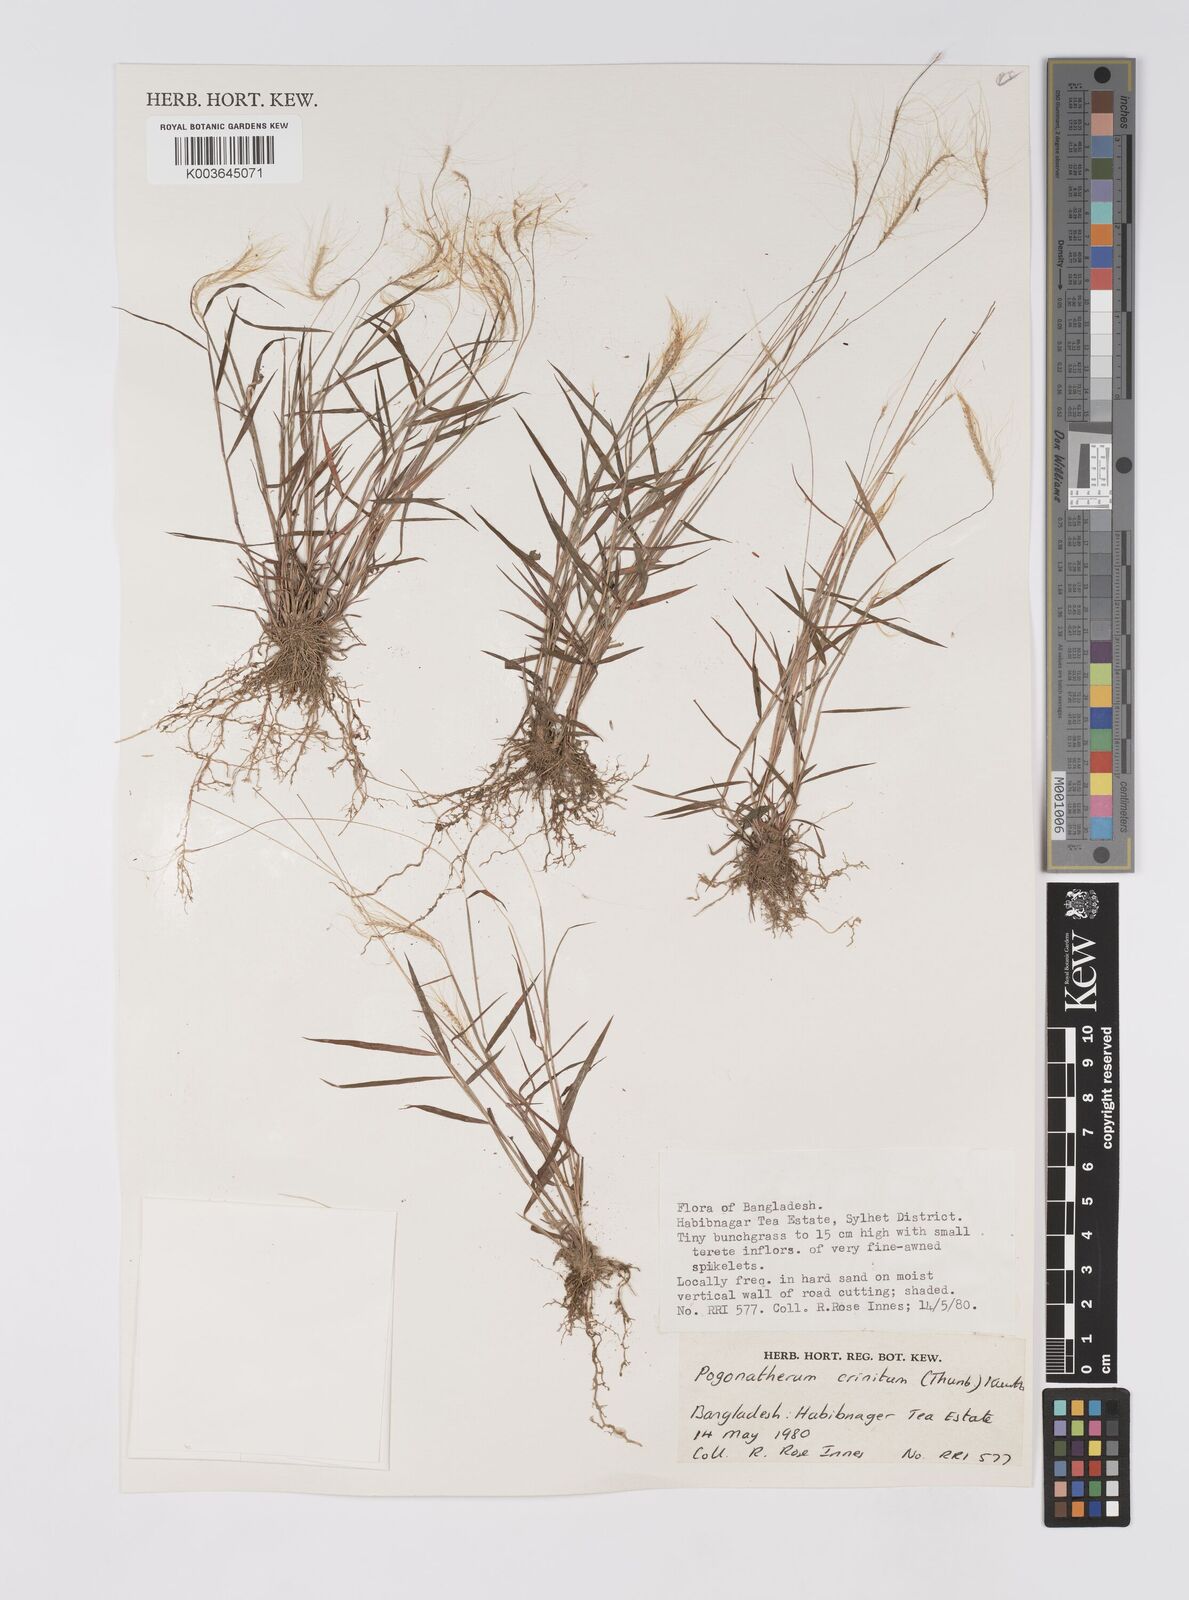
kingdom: Plantae
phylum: Tracheophyta
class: Liliopsida
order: Poales
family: Poaceae
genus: Pogonatherum
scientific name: Pogonatherum crinitum
